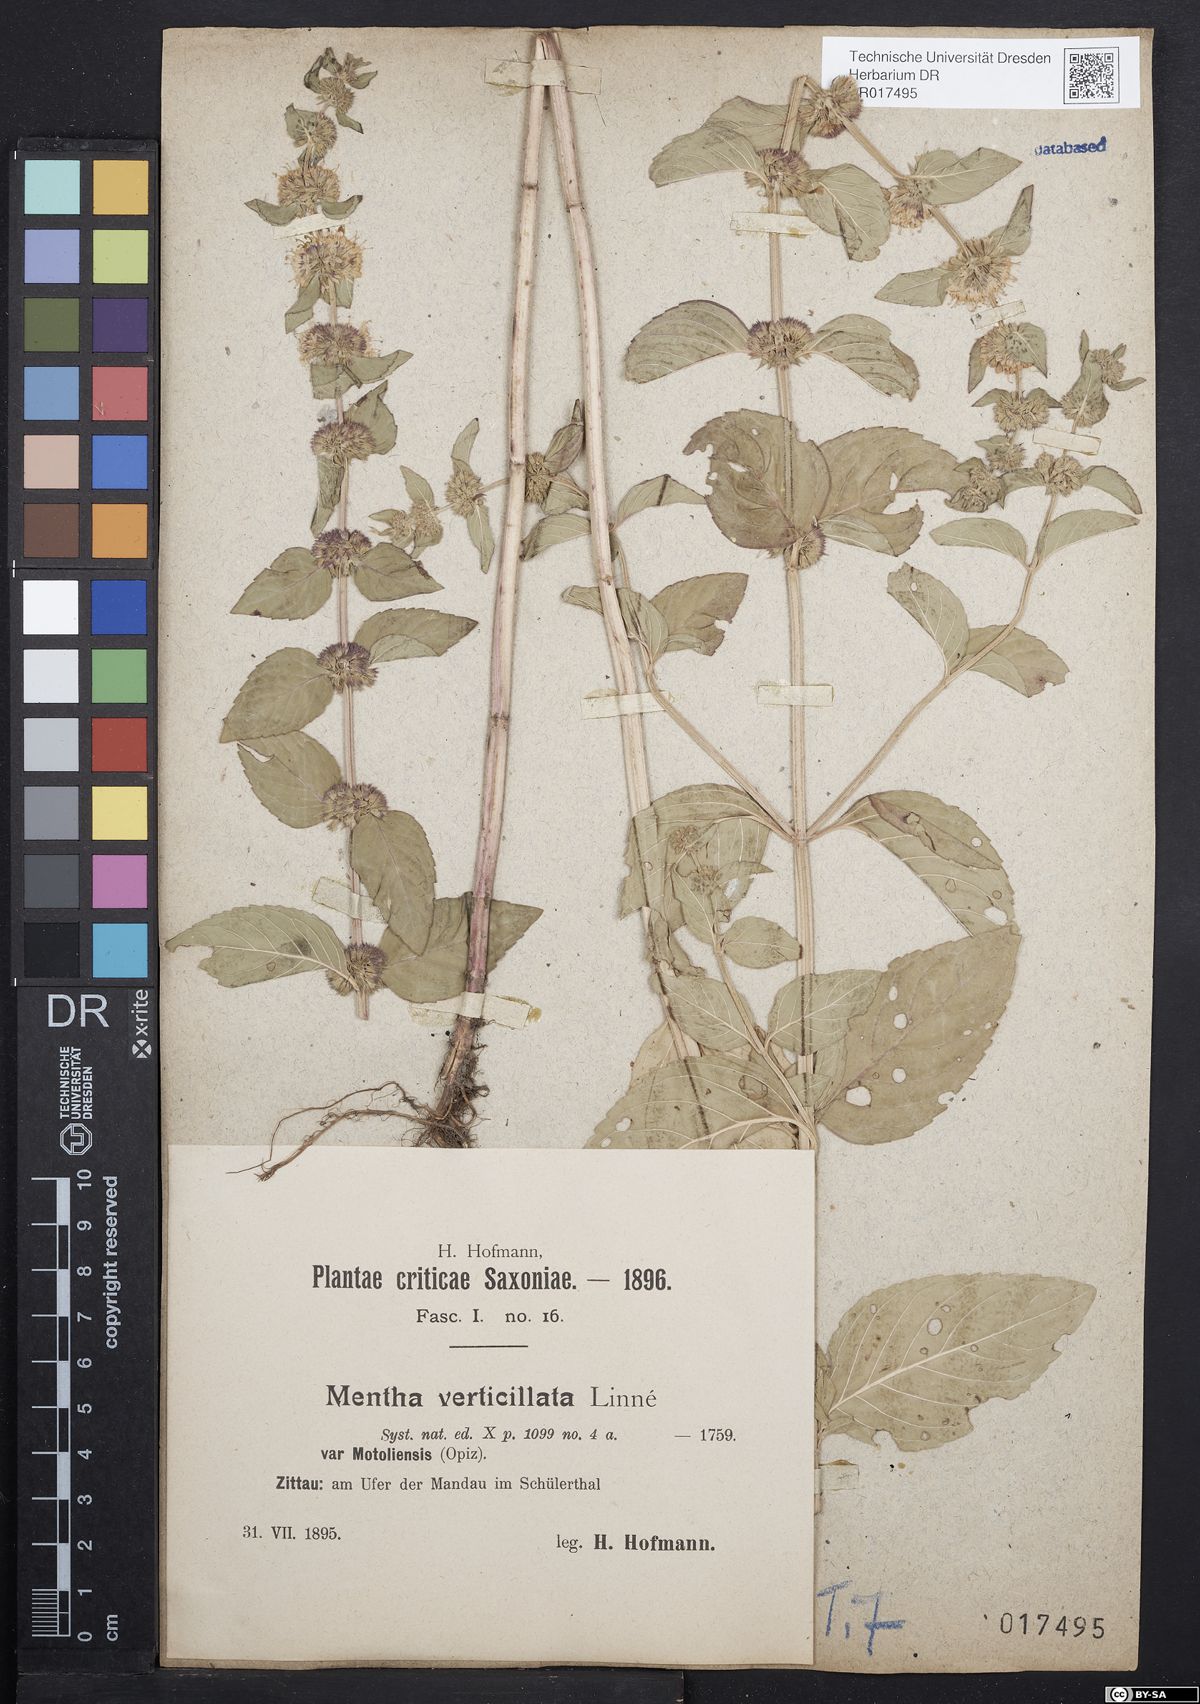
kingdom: Plantae
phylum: Tracheophyta
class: Magnoliopsida
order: Lamiales
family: Lamiaceae
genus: Mentha
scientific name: Mentha verticillata
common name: Mint
